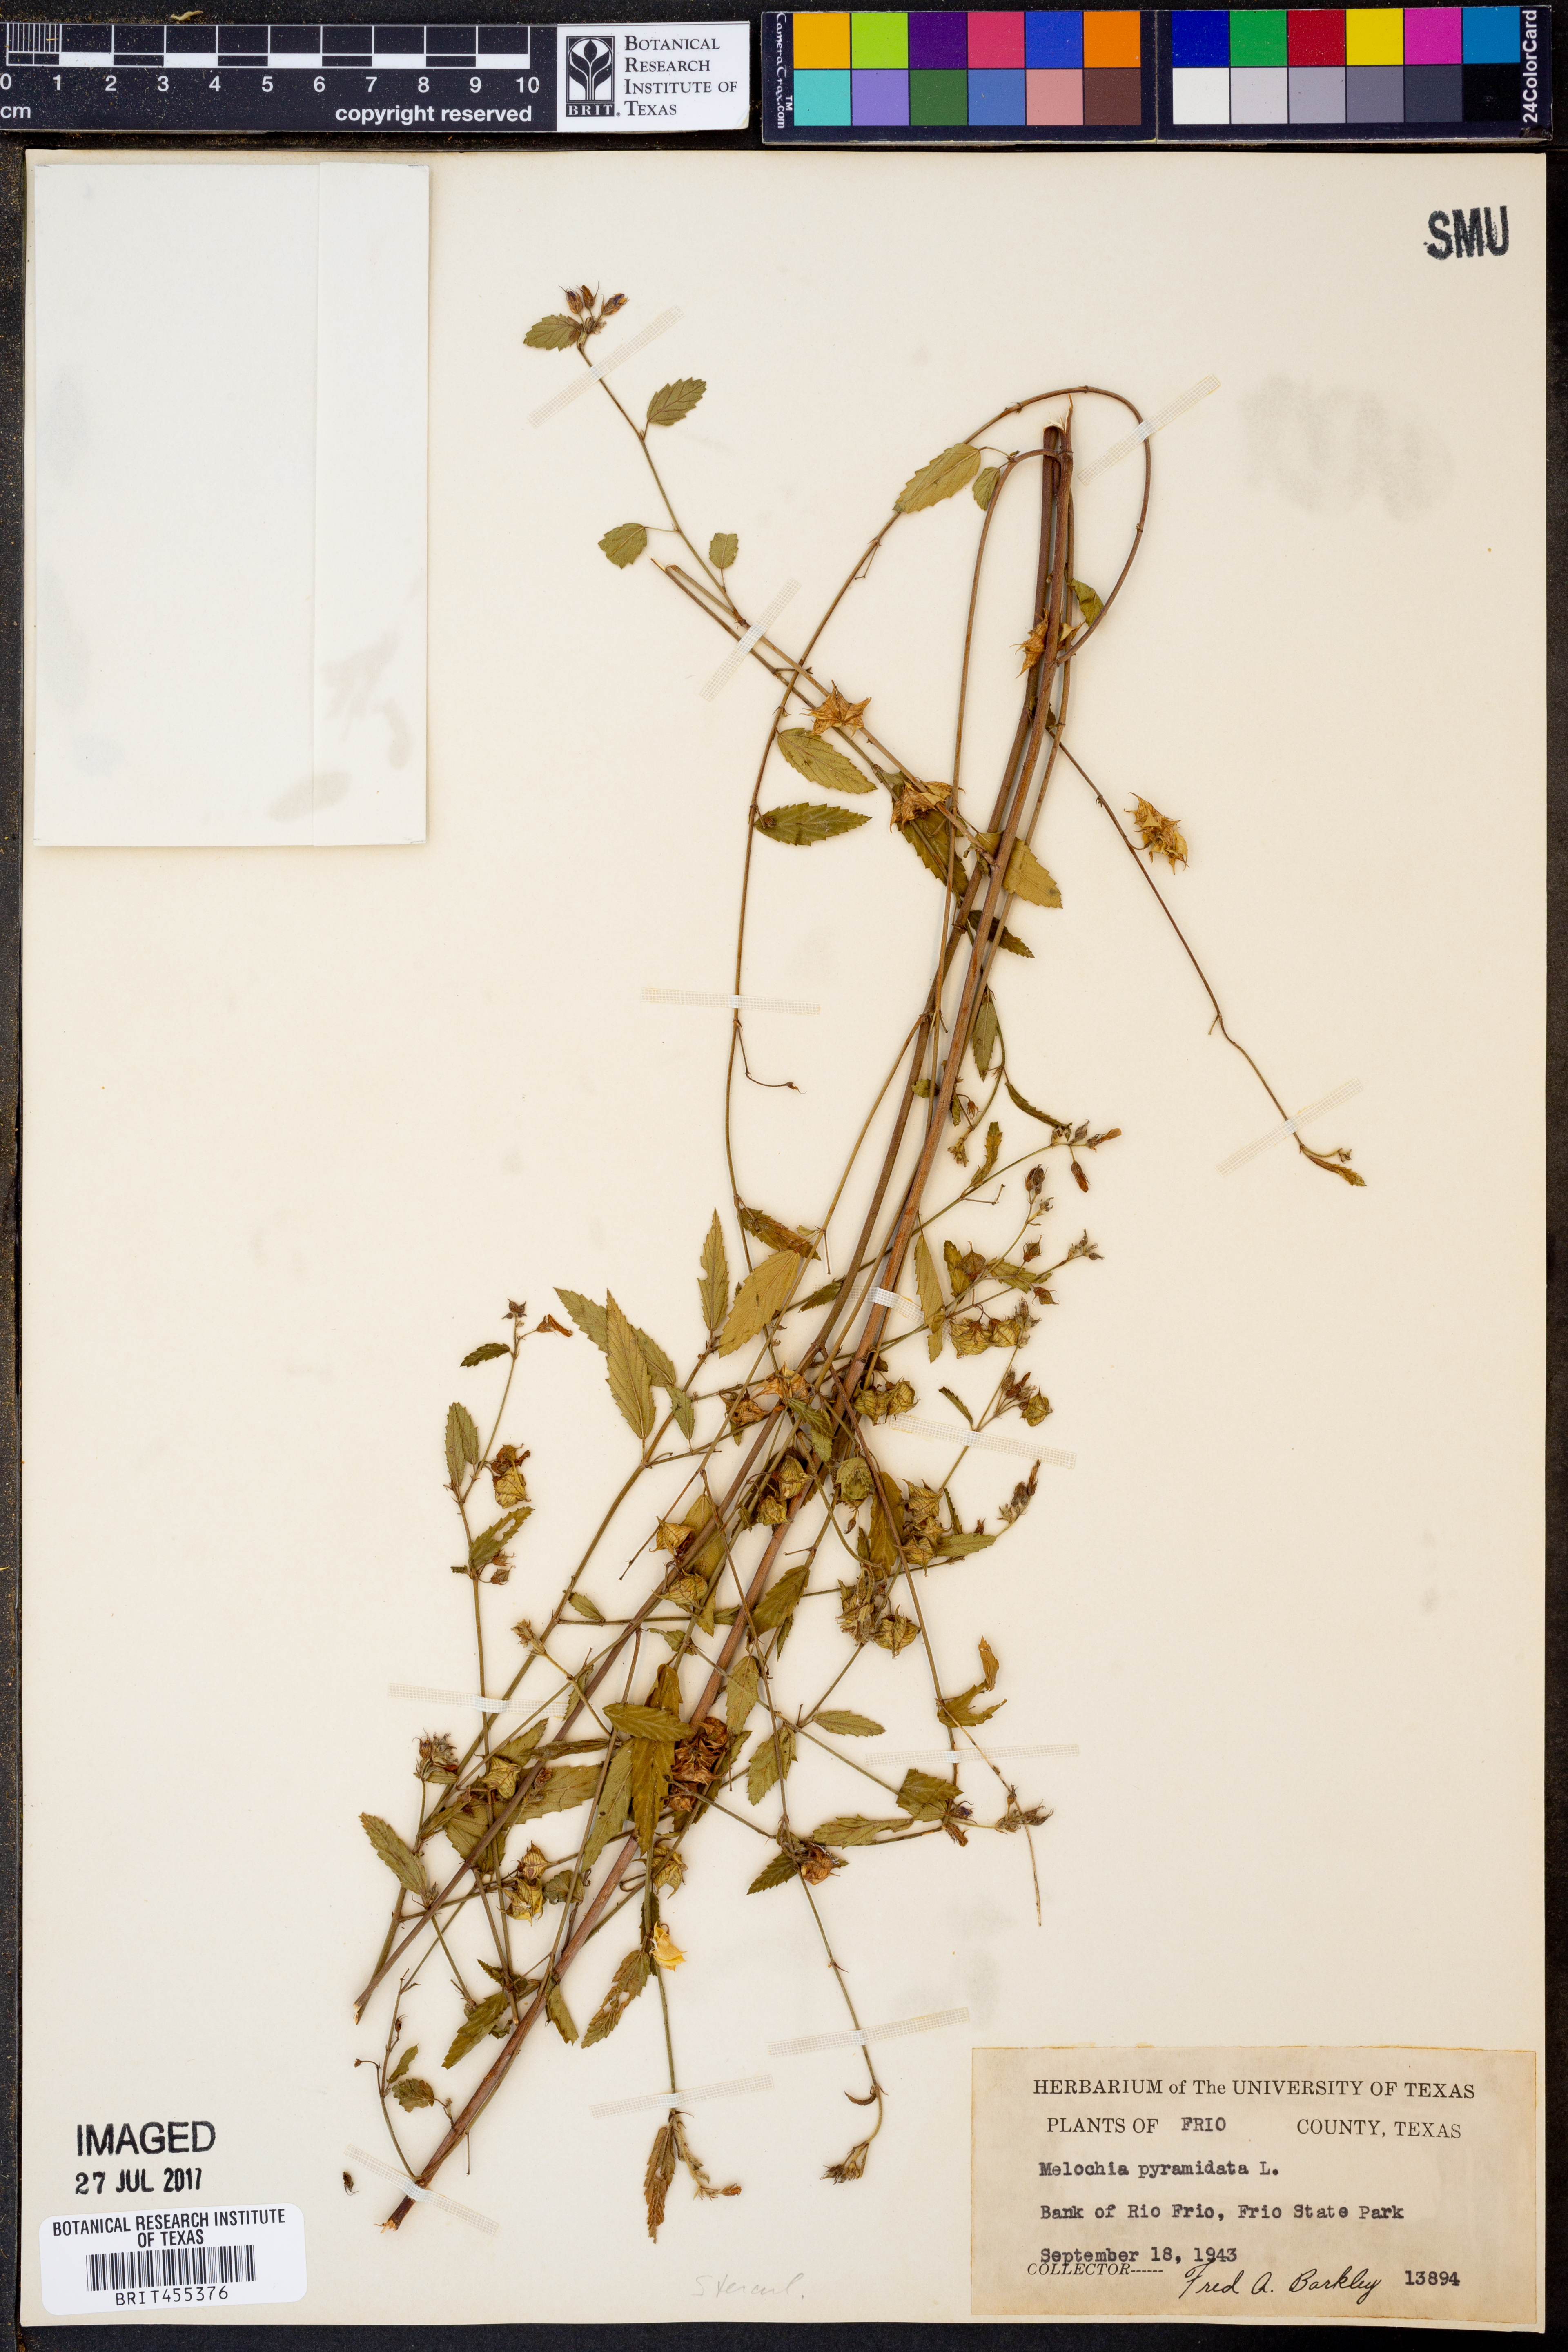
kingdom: Plantae
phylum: Tracheophyta
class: Magnoliopsida
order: Malvales
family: Malvaceae
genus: Melochia
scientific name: Melochia pyramidata
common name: Pyramidflower
